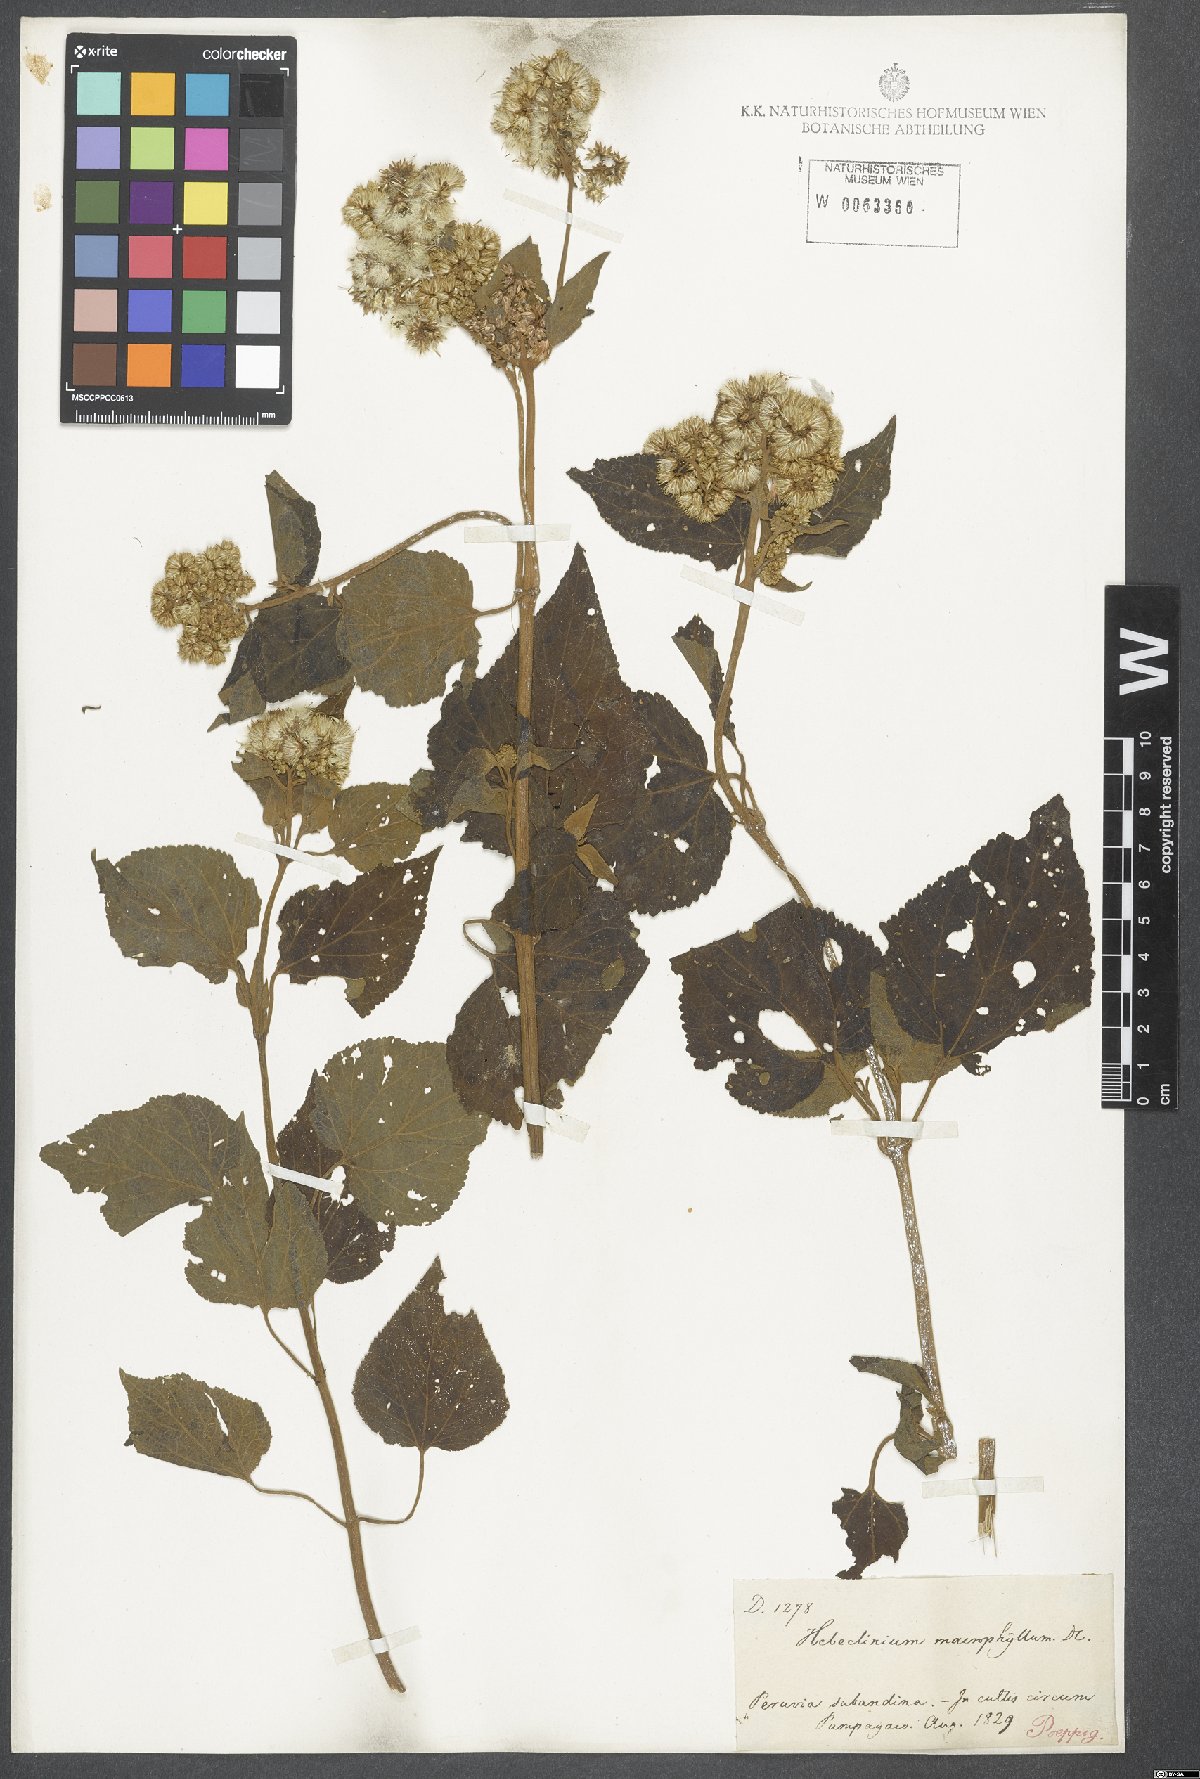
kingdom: Plantae
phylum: Tracheophyta
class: Magnoliopsida
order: Asterales
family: Asteraceae
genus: Hebeclinium
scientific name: Hebeclinium macrophyllum
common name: Largeleaf thoroughwort
